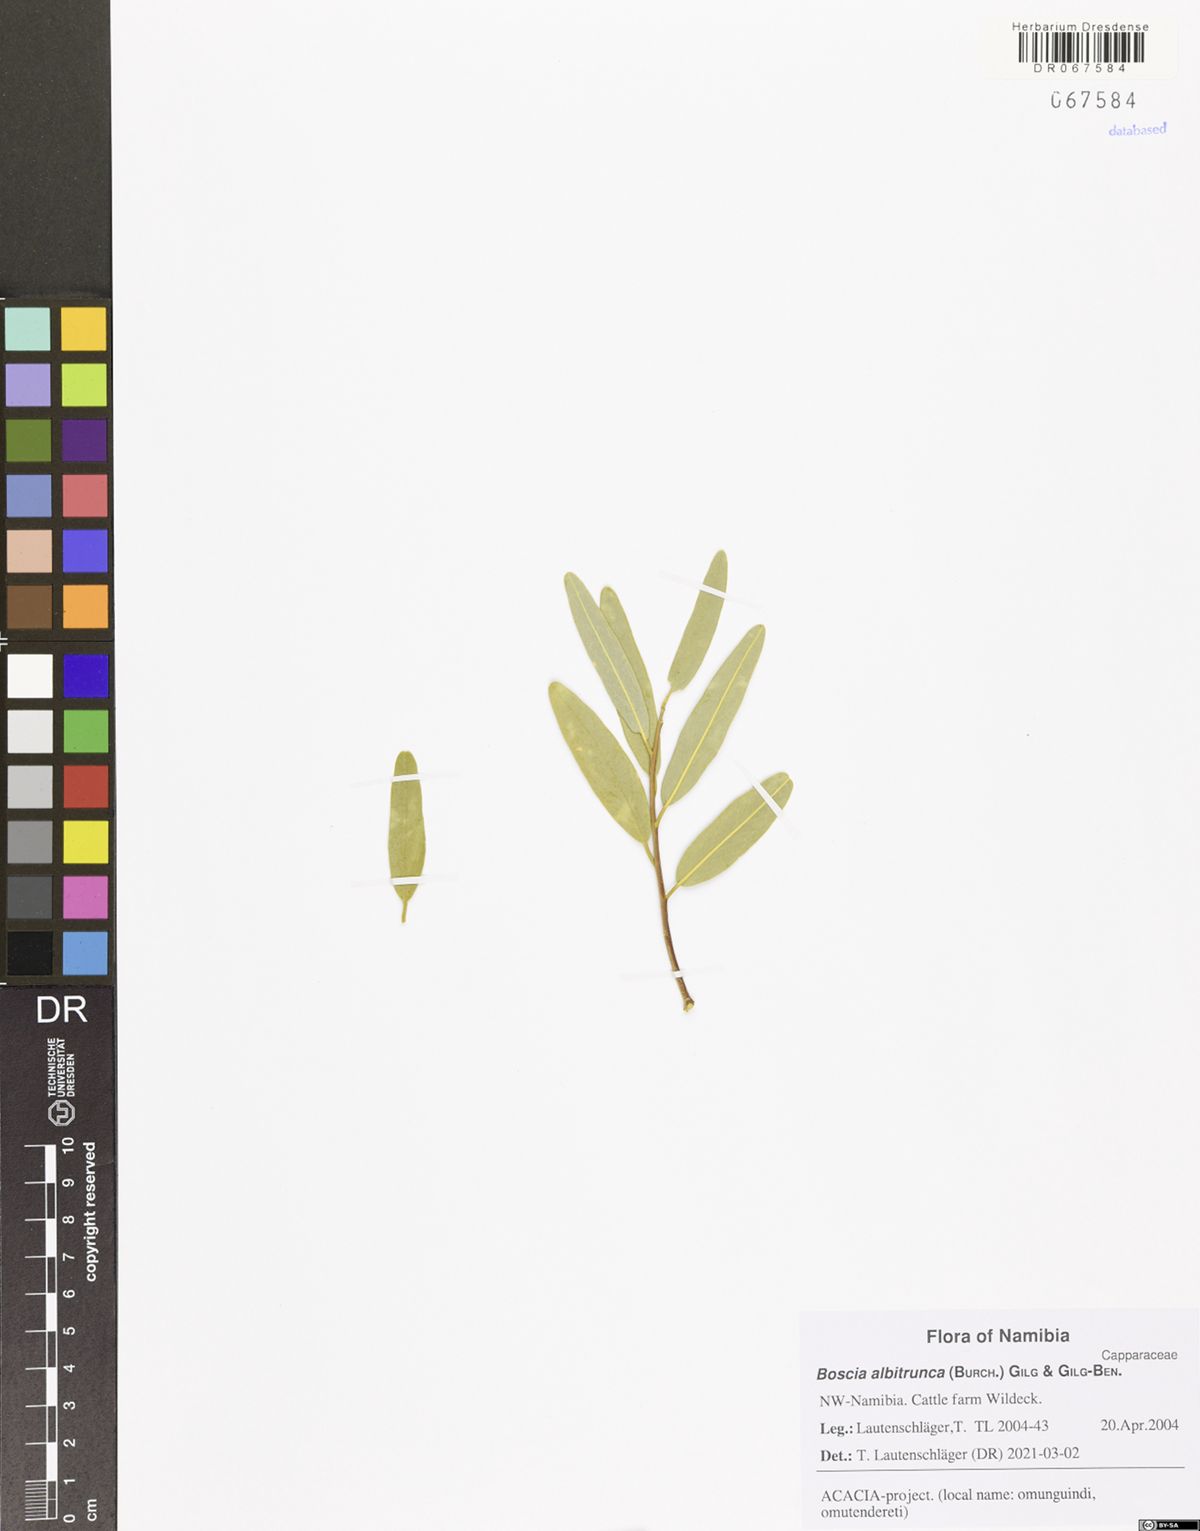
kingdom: Plantae
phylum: Tracheophyta
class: Magnoliopsida
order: Brassicales
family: Capparaceae
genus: Boscia
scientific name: Boscia albitrunca
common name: Caper bush
